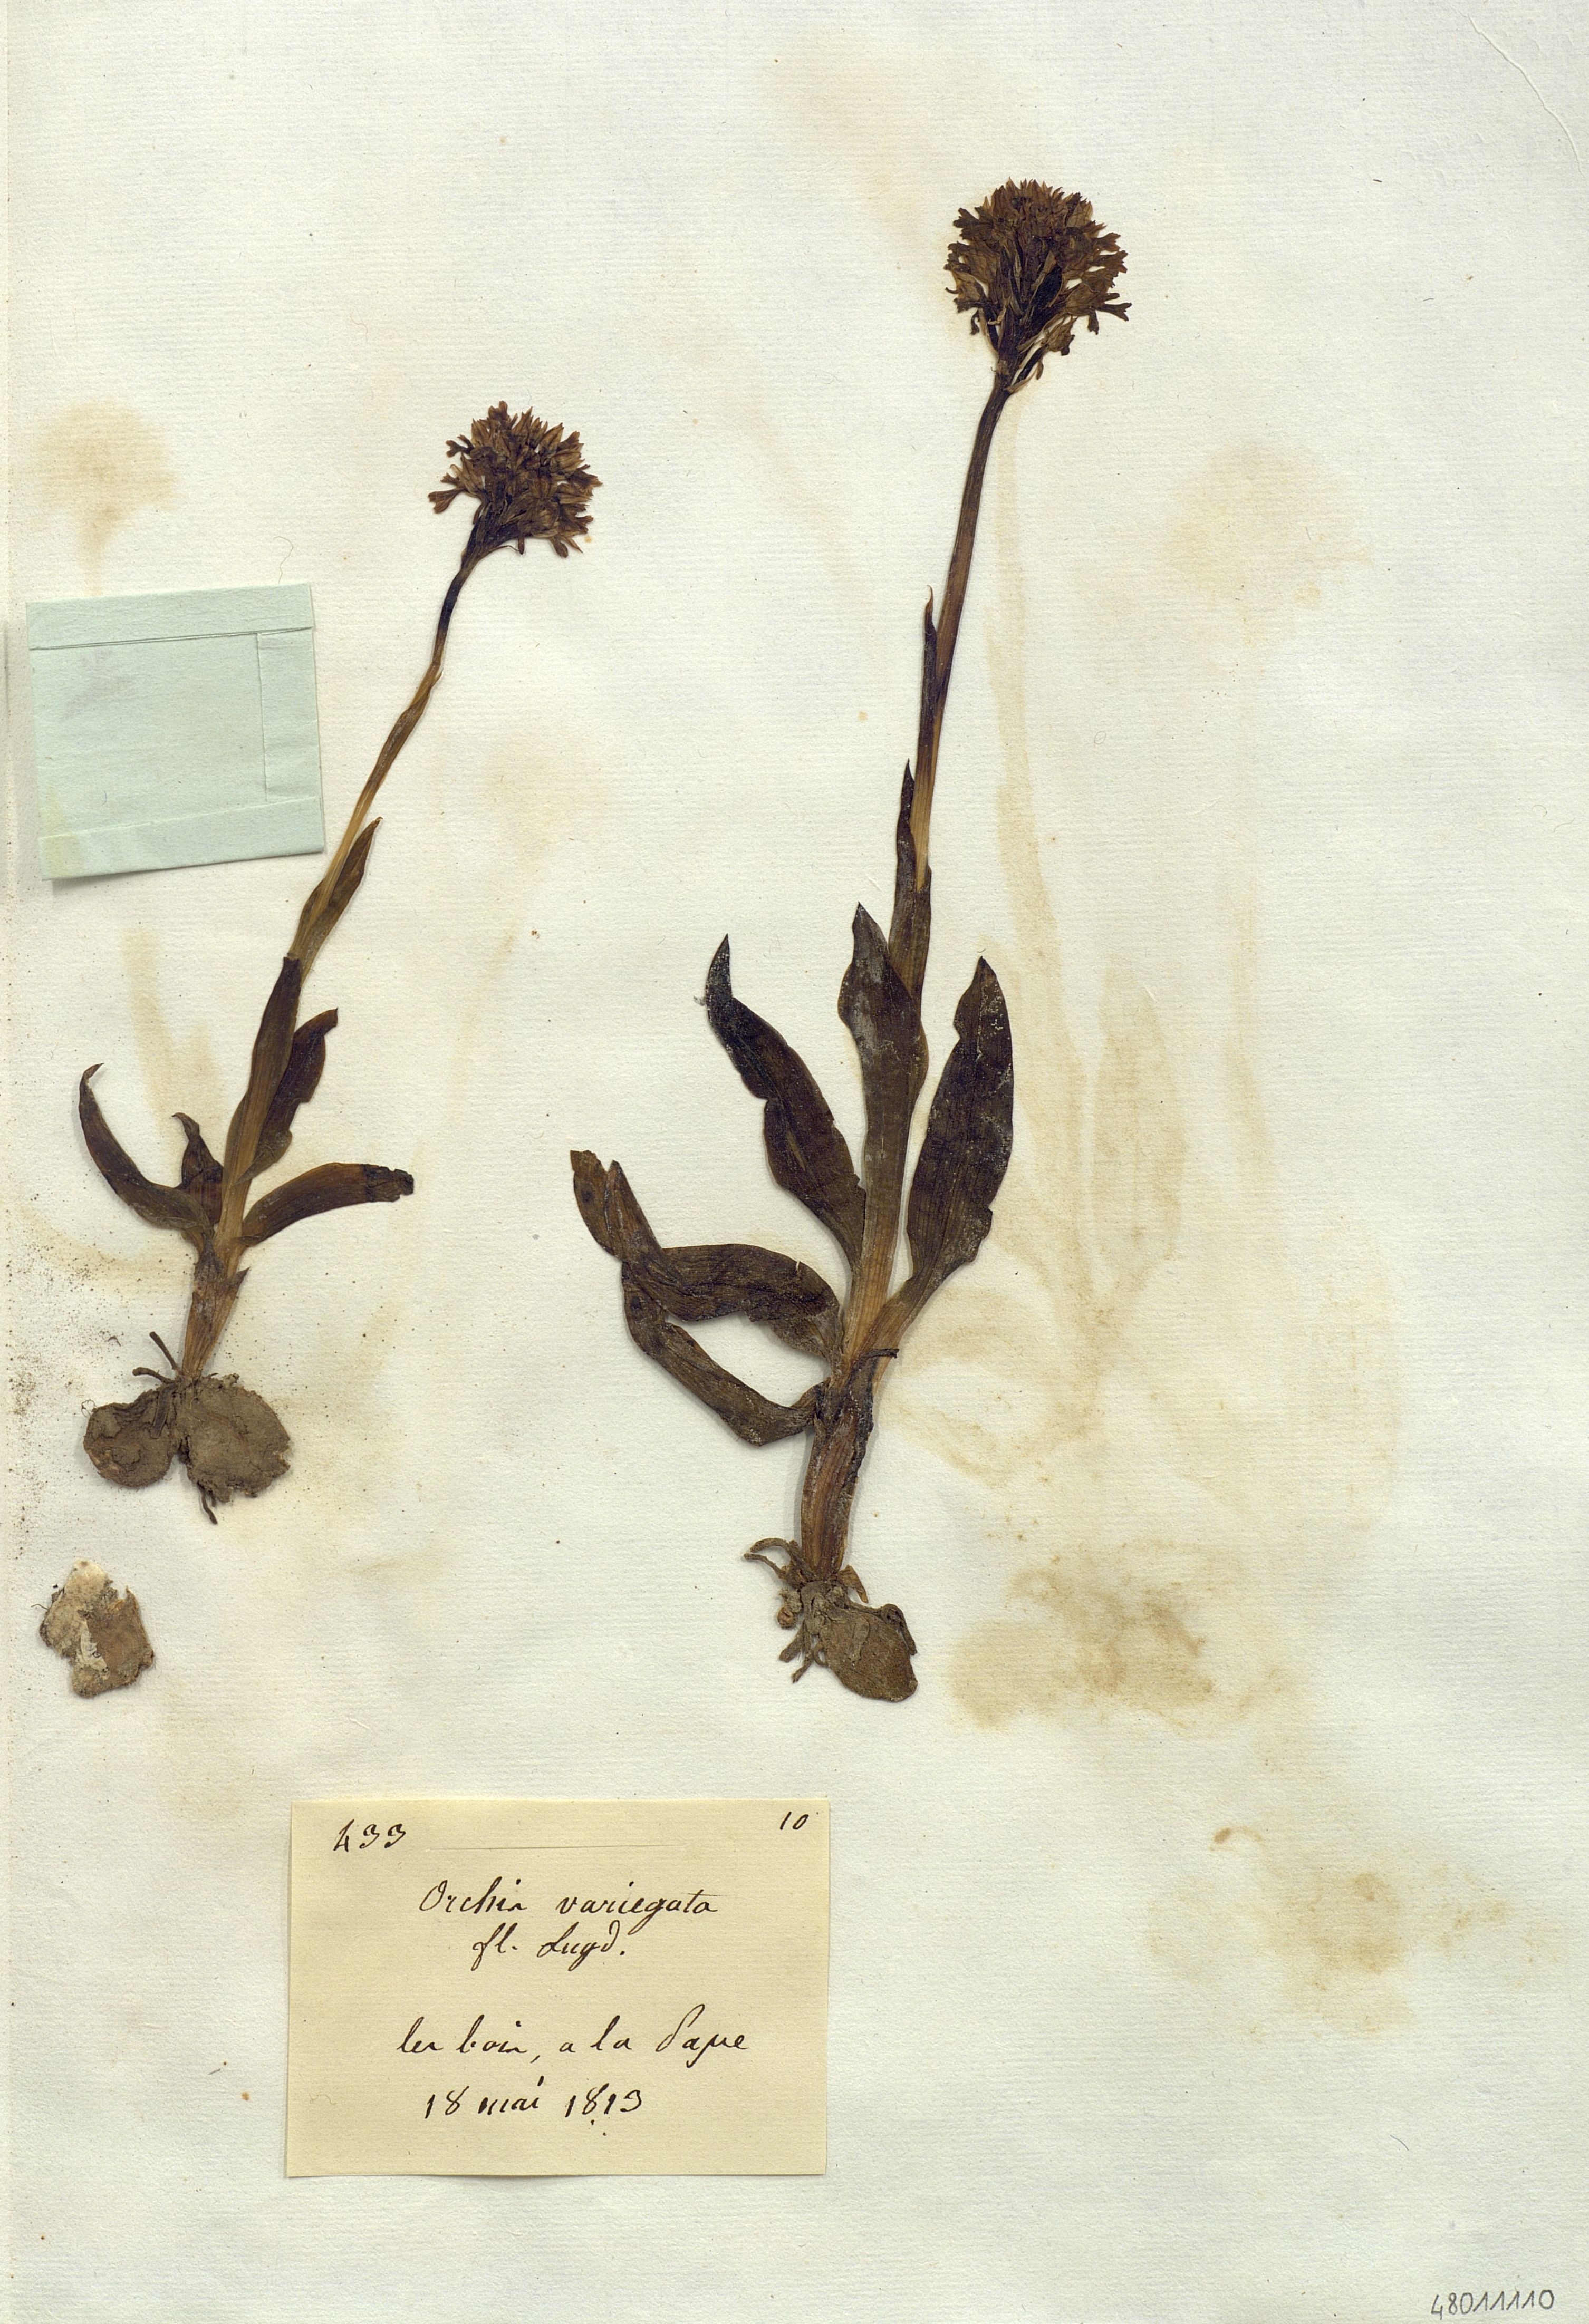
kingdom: Plantae
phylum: Tracheophyta
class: Liliopsida
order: Asparagales
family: Orchidaceae
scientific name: Orchidaceae
